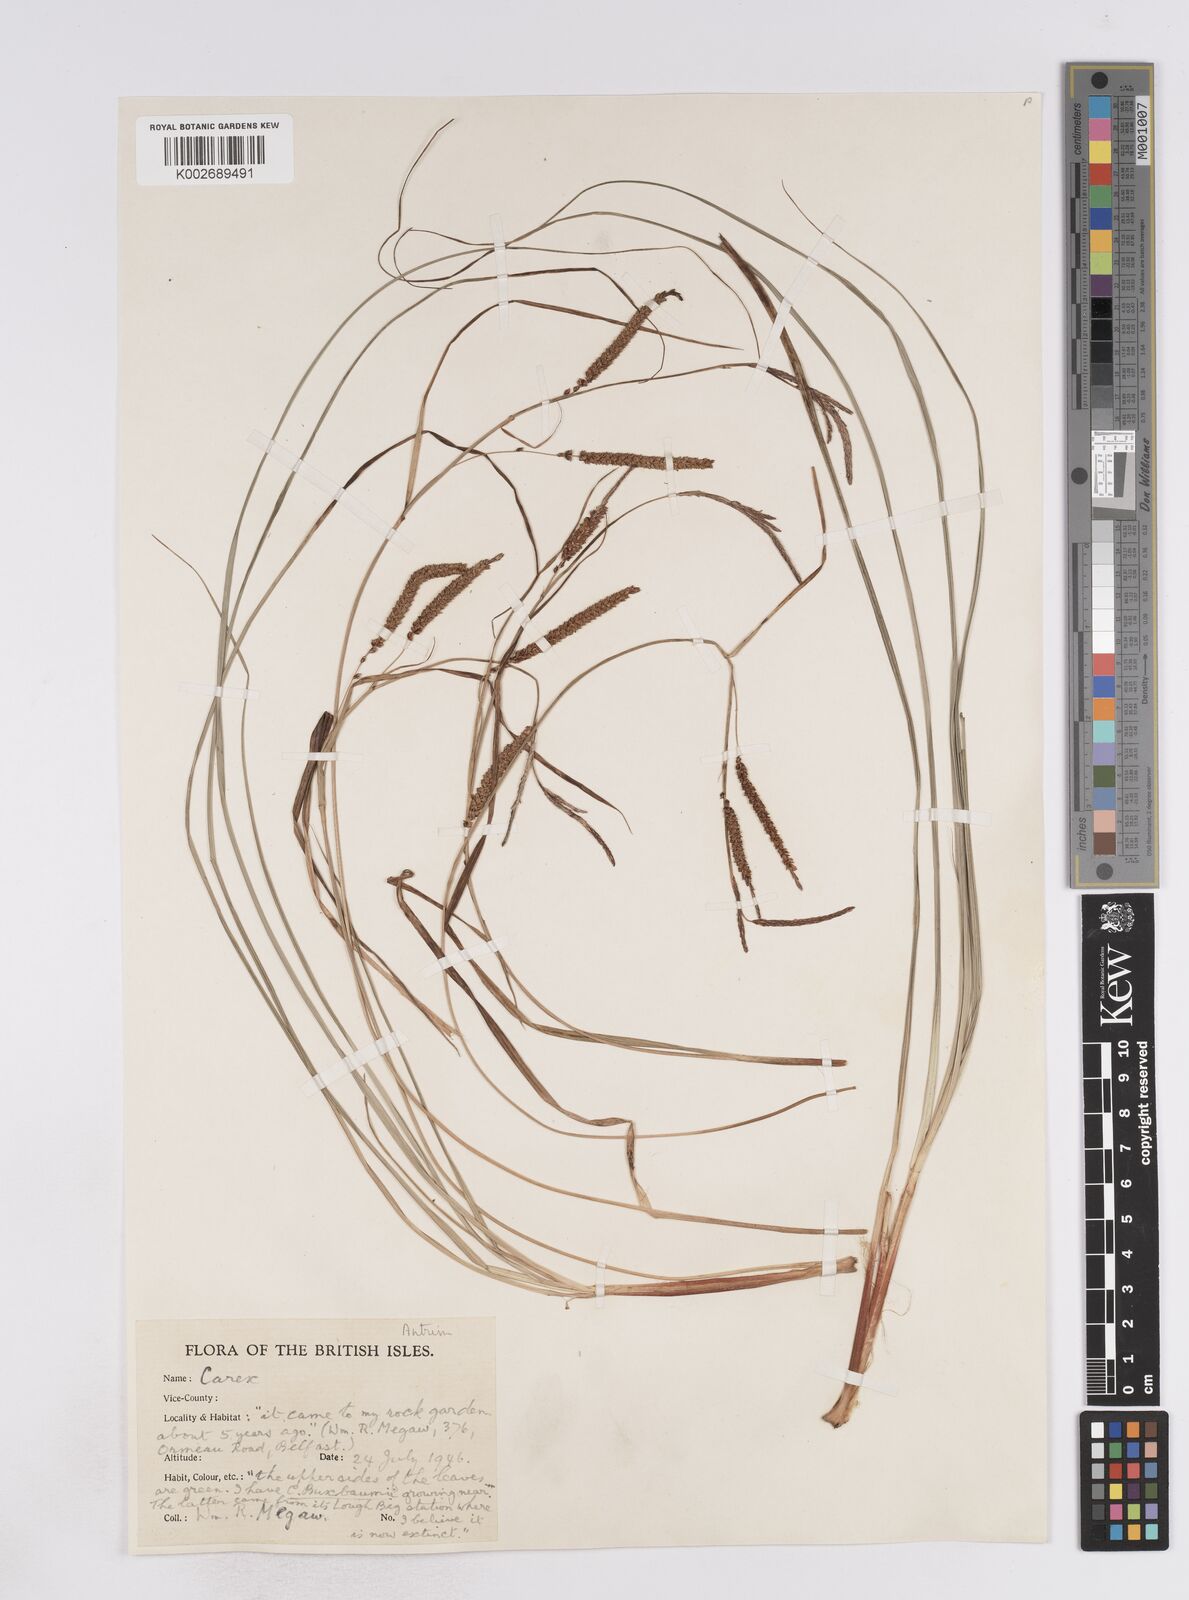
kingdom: Plantae
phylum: Tracheophyta
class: Liliopsida
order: Poales
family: Cyperaceae
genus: Carex
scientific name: Carex flacca
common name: Glaucous sedge
